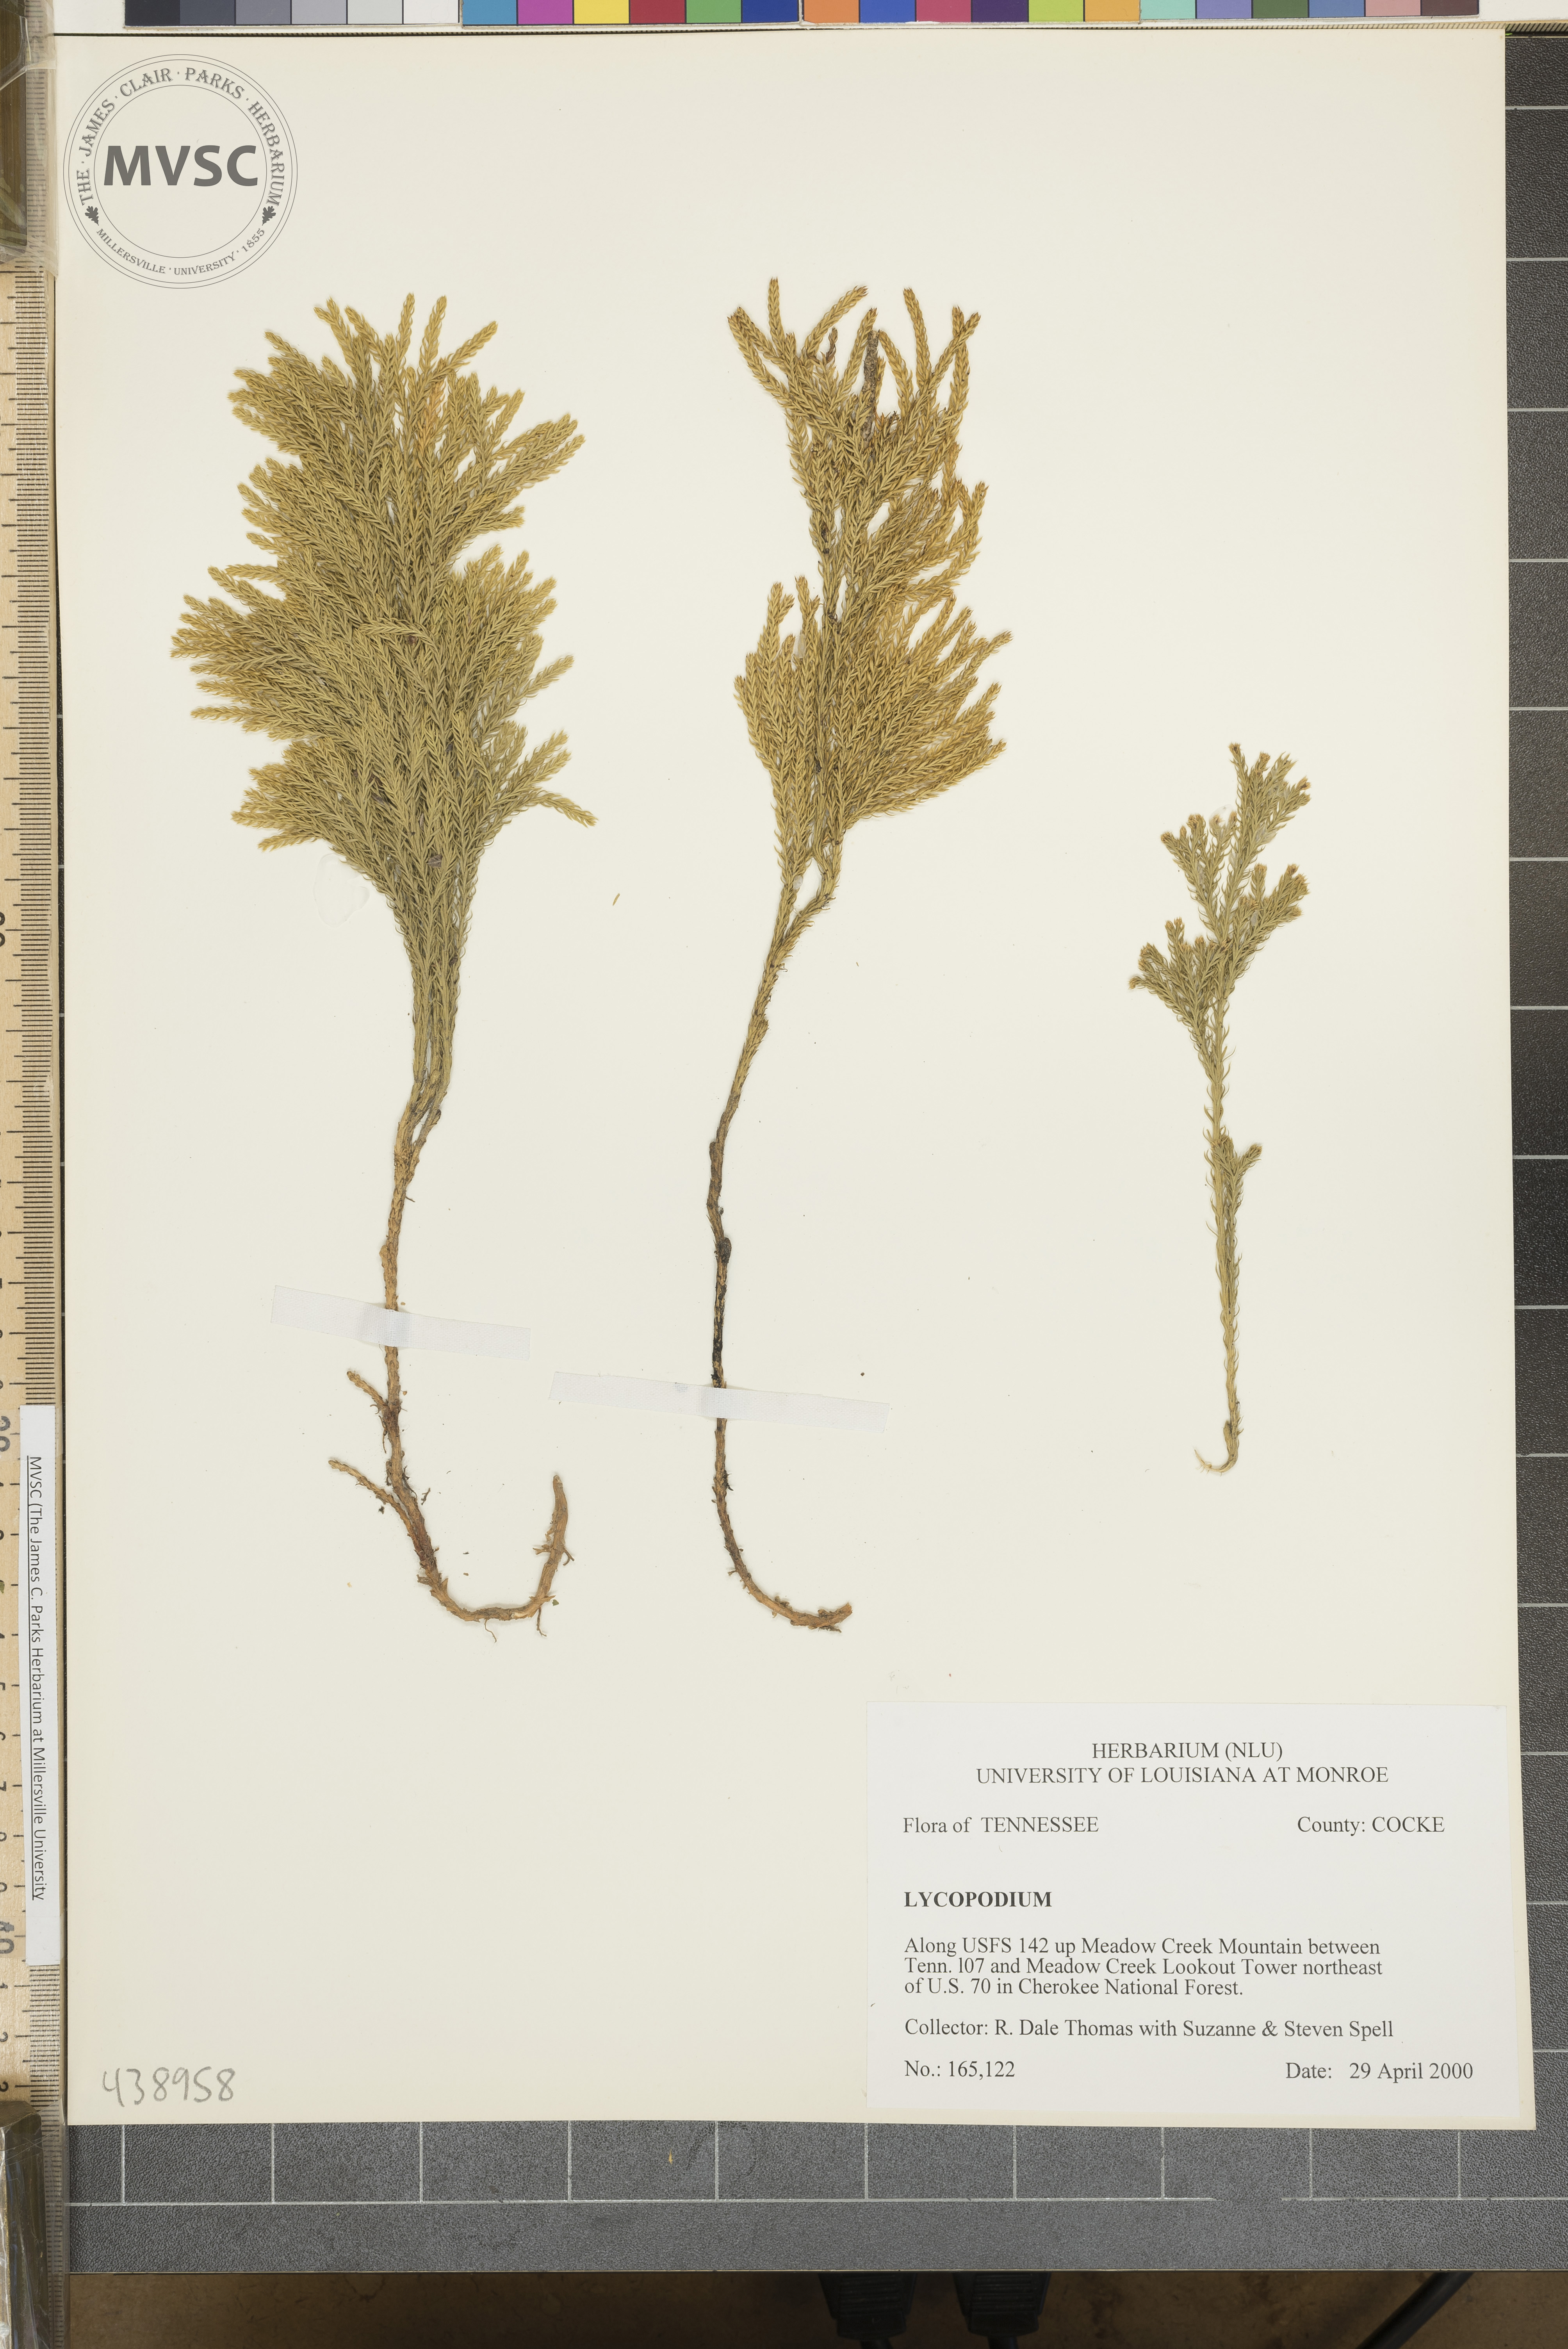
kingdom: Plantae
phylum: Tracheophyta
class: Lycopodiopsida
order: Lycopodiales
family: Lycopodiaceae
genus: Dendrolycopodium
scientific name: Dendrolycopodium hickeyi
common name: Hickey's clubmoss
